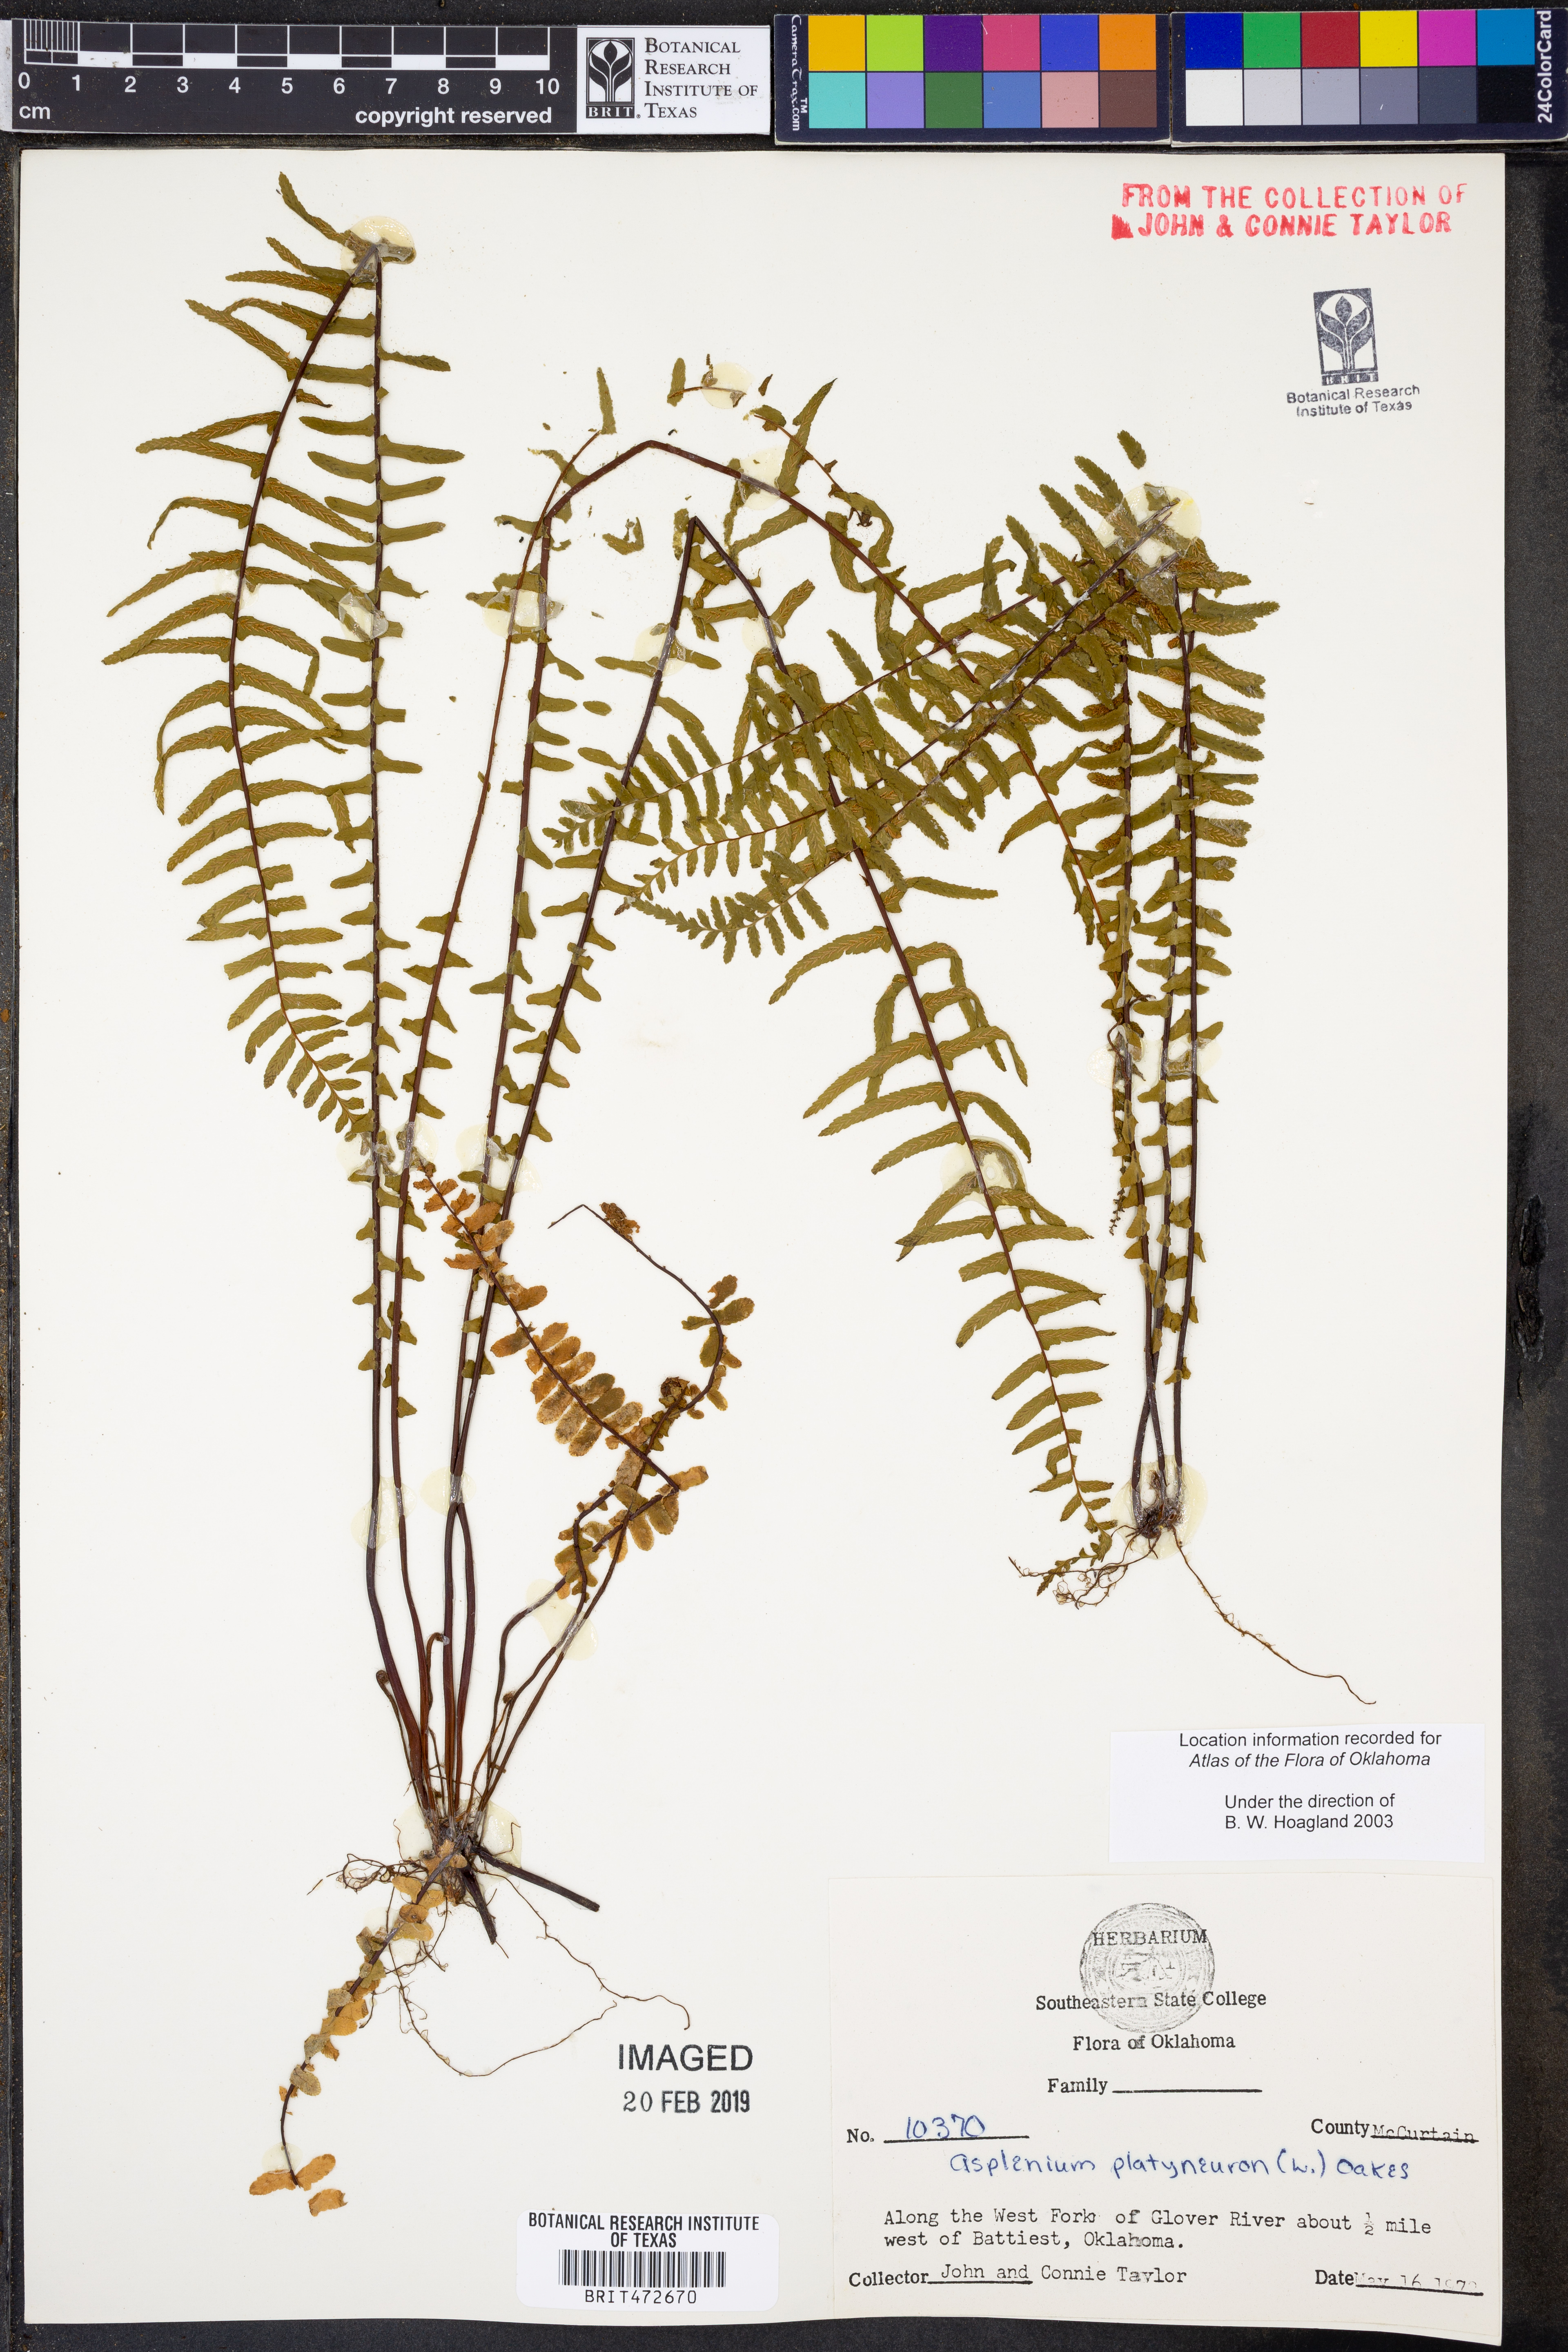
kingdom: Plantae
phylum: Tracheophyta
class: Polypodiopsida
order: Polypodiales
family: Aspleniaceae
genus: Asplenium
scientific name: Asplenium platyneuron
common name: Ebony spleenwort
